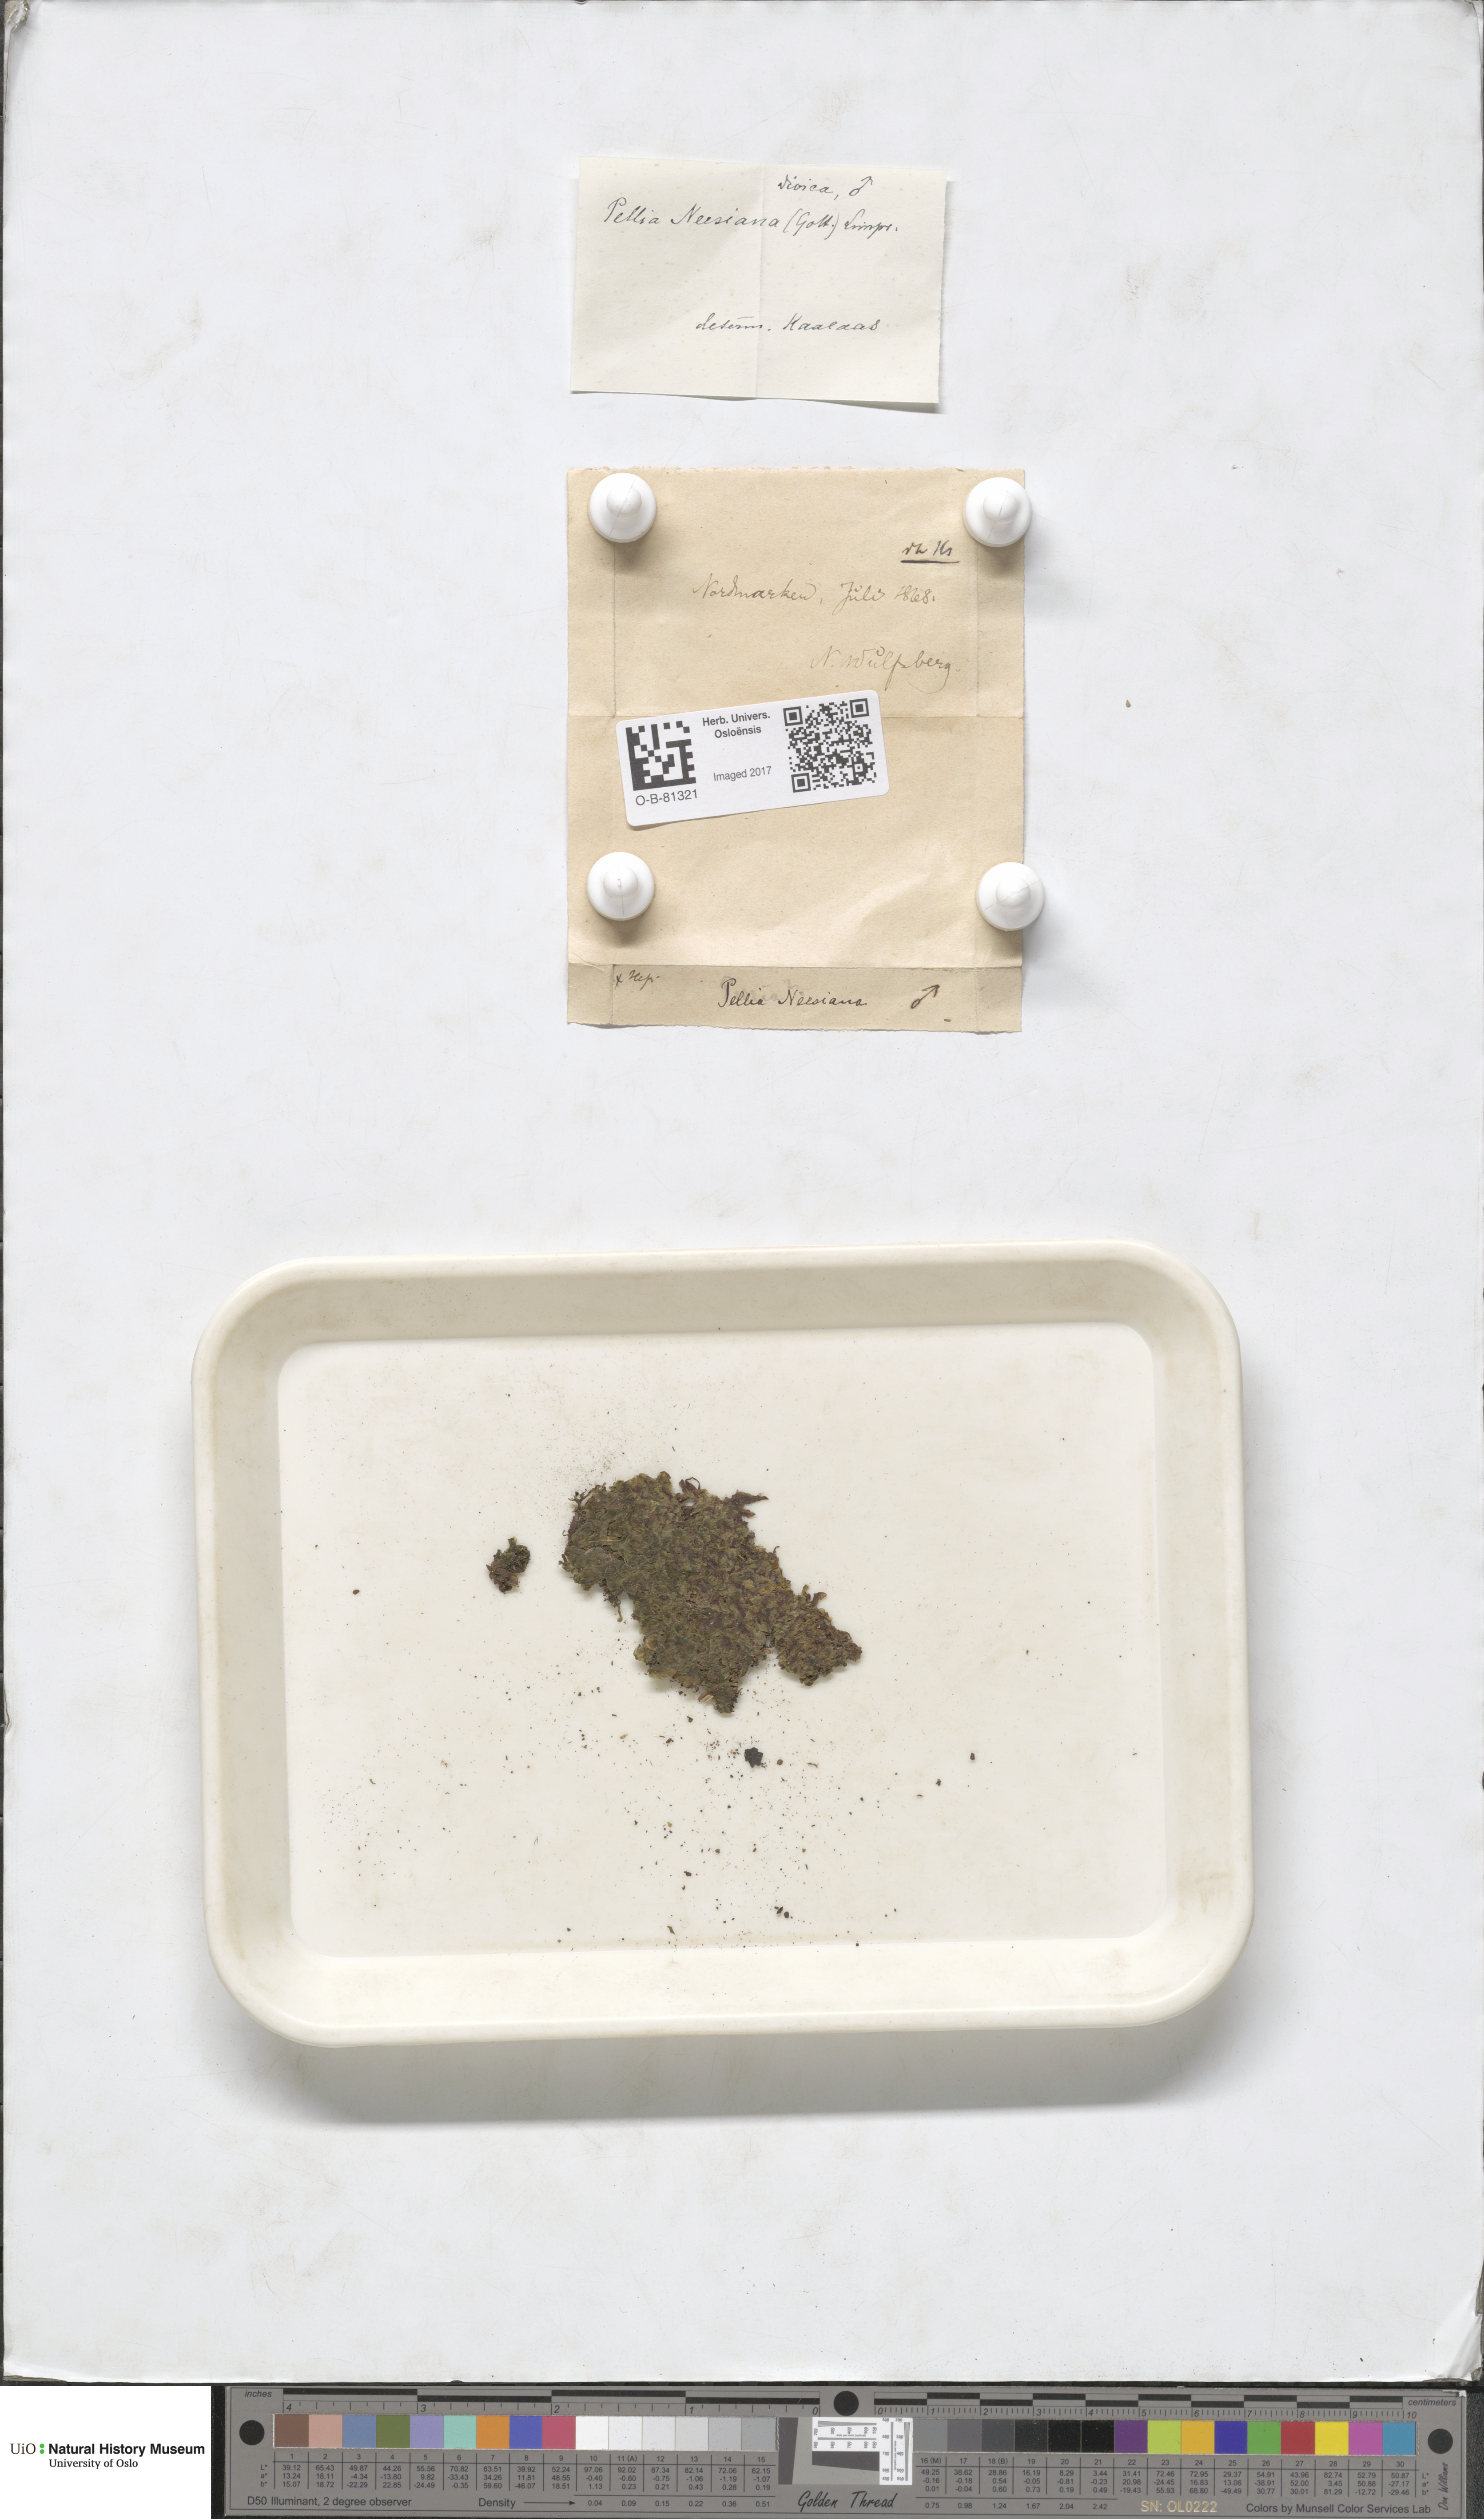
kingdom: Plantae
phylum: Marchantiophyta
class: Jungermanniopsida
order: Pelliales
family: Pelliaceae
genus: Pellia
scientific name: Pellia neesiana
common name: Nees  pellia
